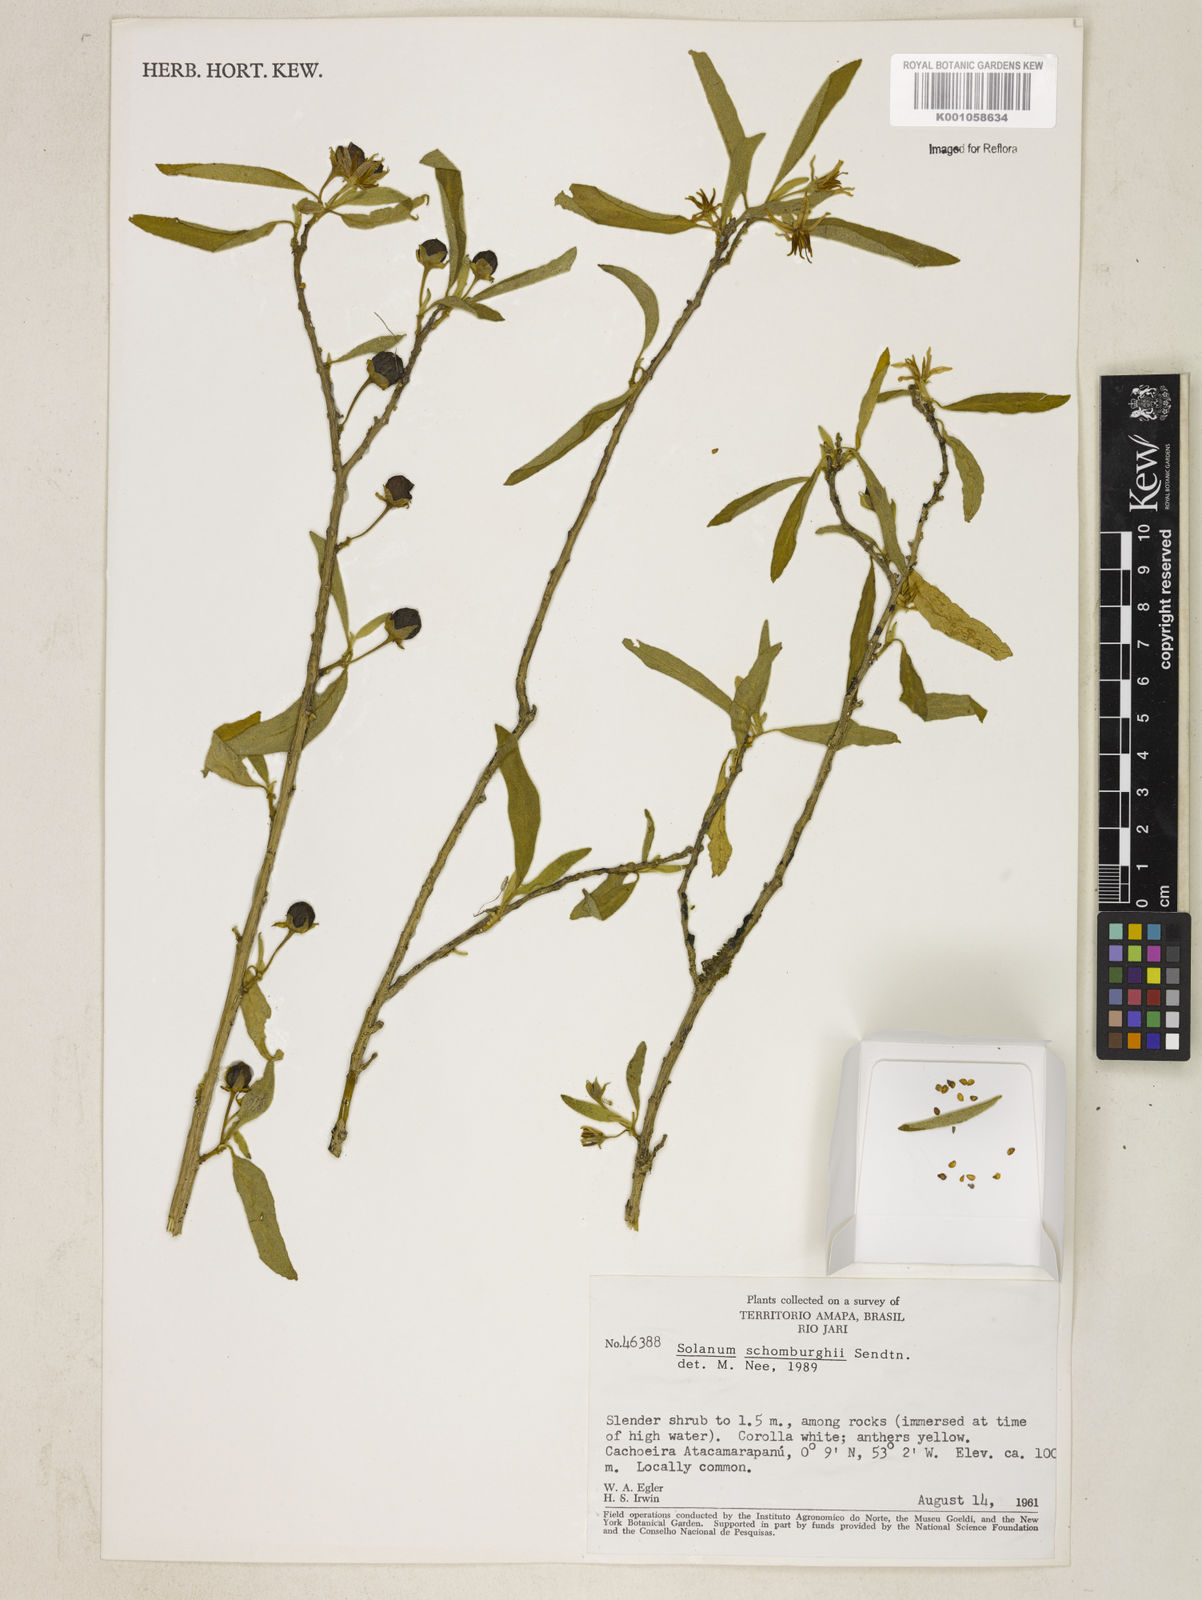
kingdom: Plantae
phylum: Tracheophyta
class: Magnoliopsida
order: Solanales
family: Solanaceae
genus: Solanum
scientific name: Solanum
